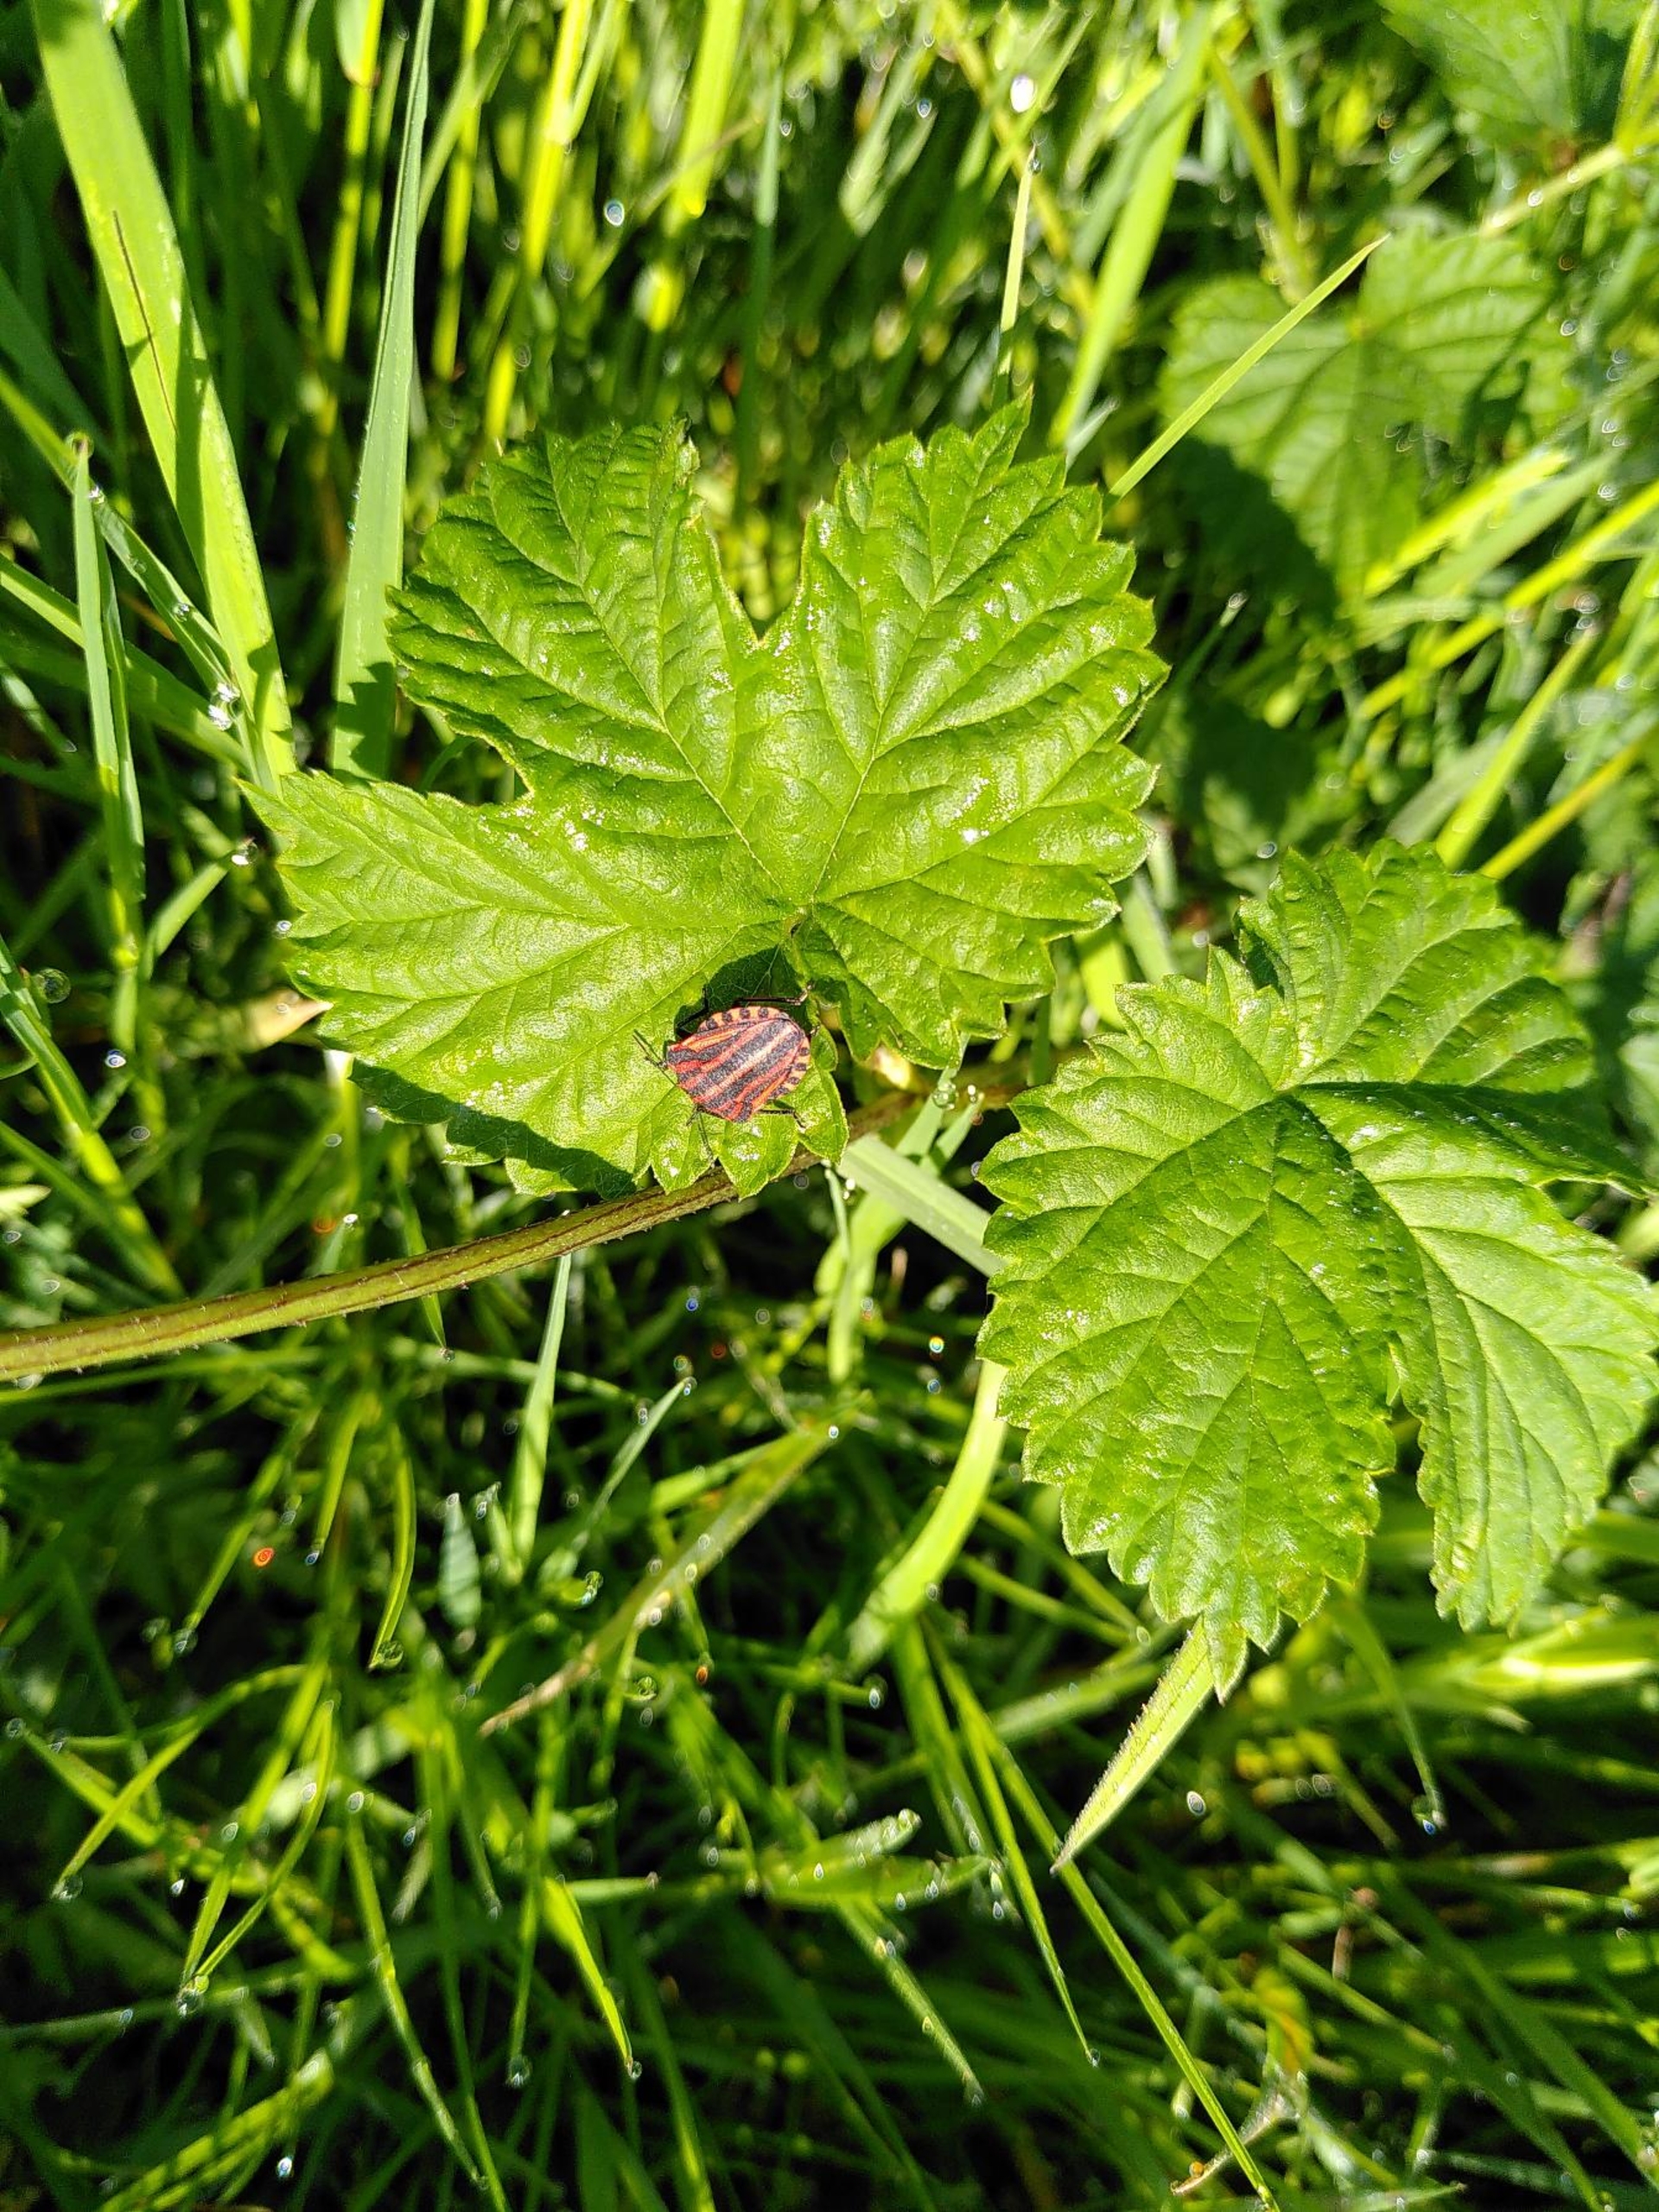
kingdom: Animalia
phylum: Arthropoda
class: Insecta
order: Hemiptera
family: Pentatomidae
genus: Graphosoma
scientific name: Graphosoma italicum
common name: Stribetæge
